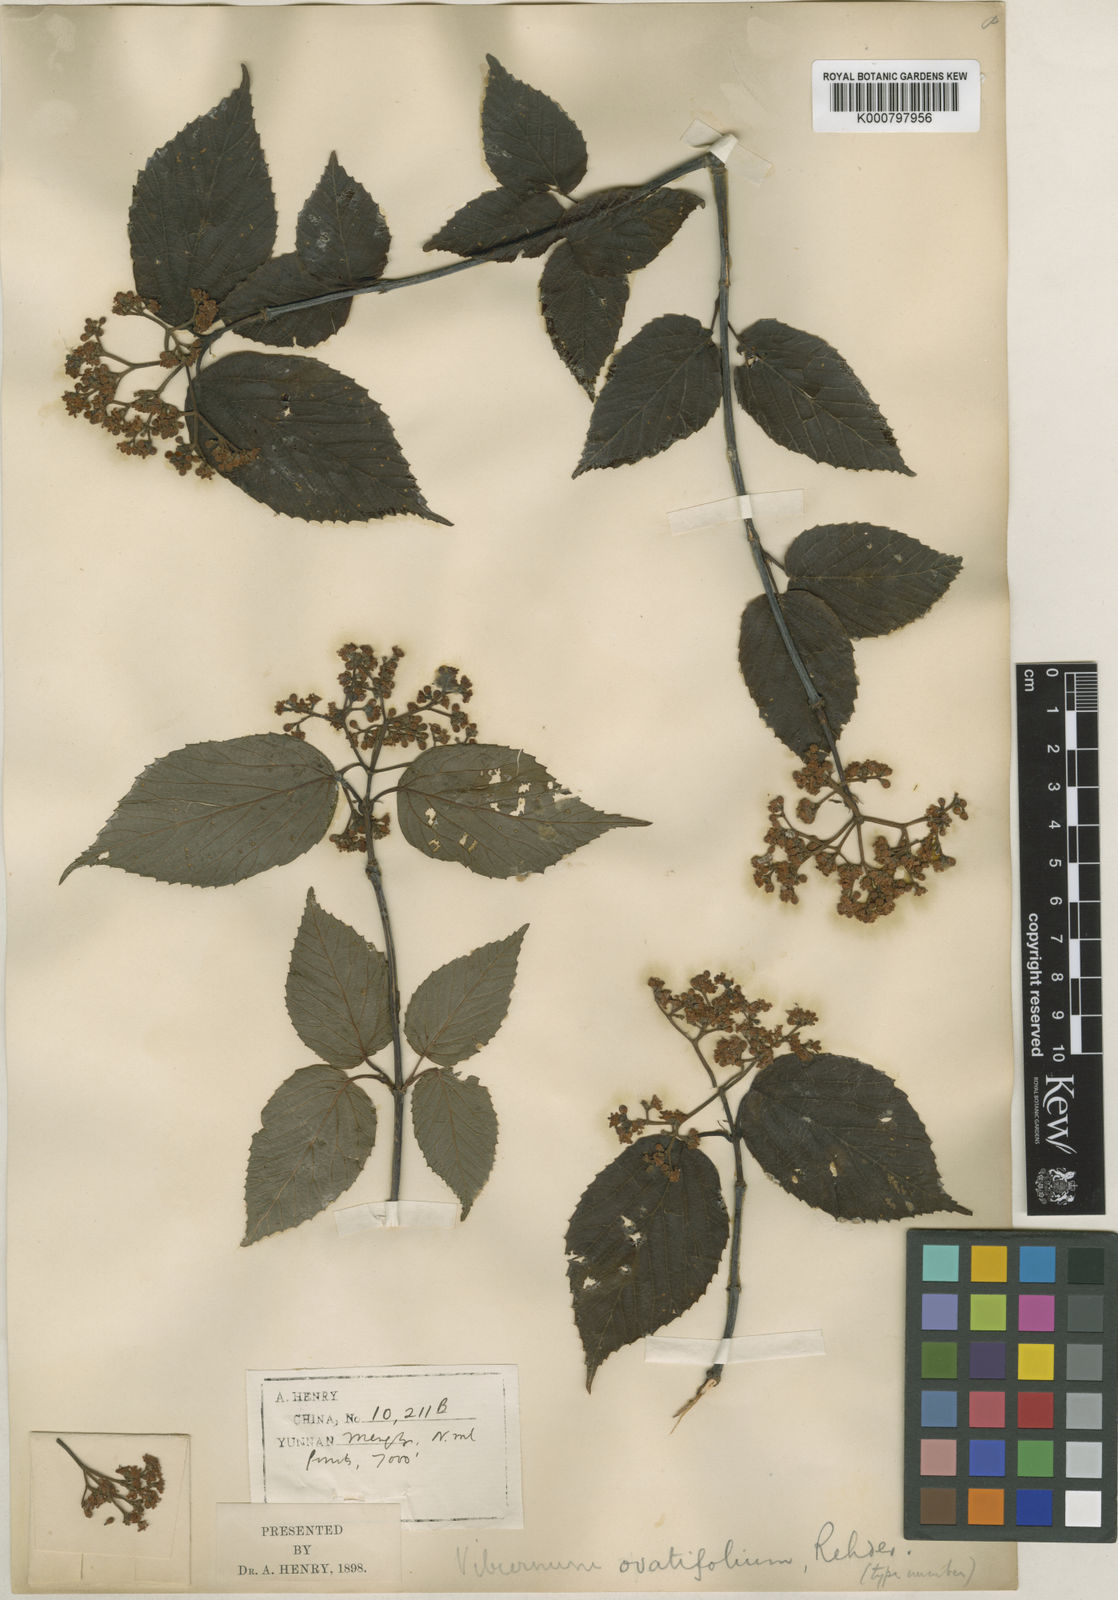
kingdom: Plantae
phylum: Tracheophyta
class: Magnoliopsida
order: Dipsacales
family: Viburnaceae
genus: Viburnum
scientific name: Viburnum betulifolium
